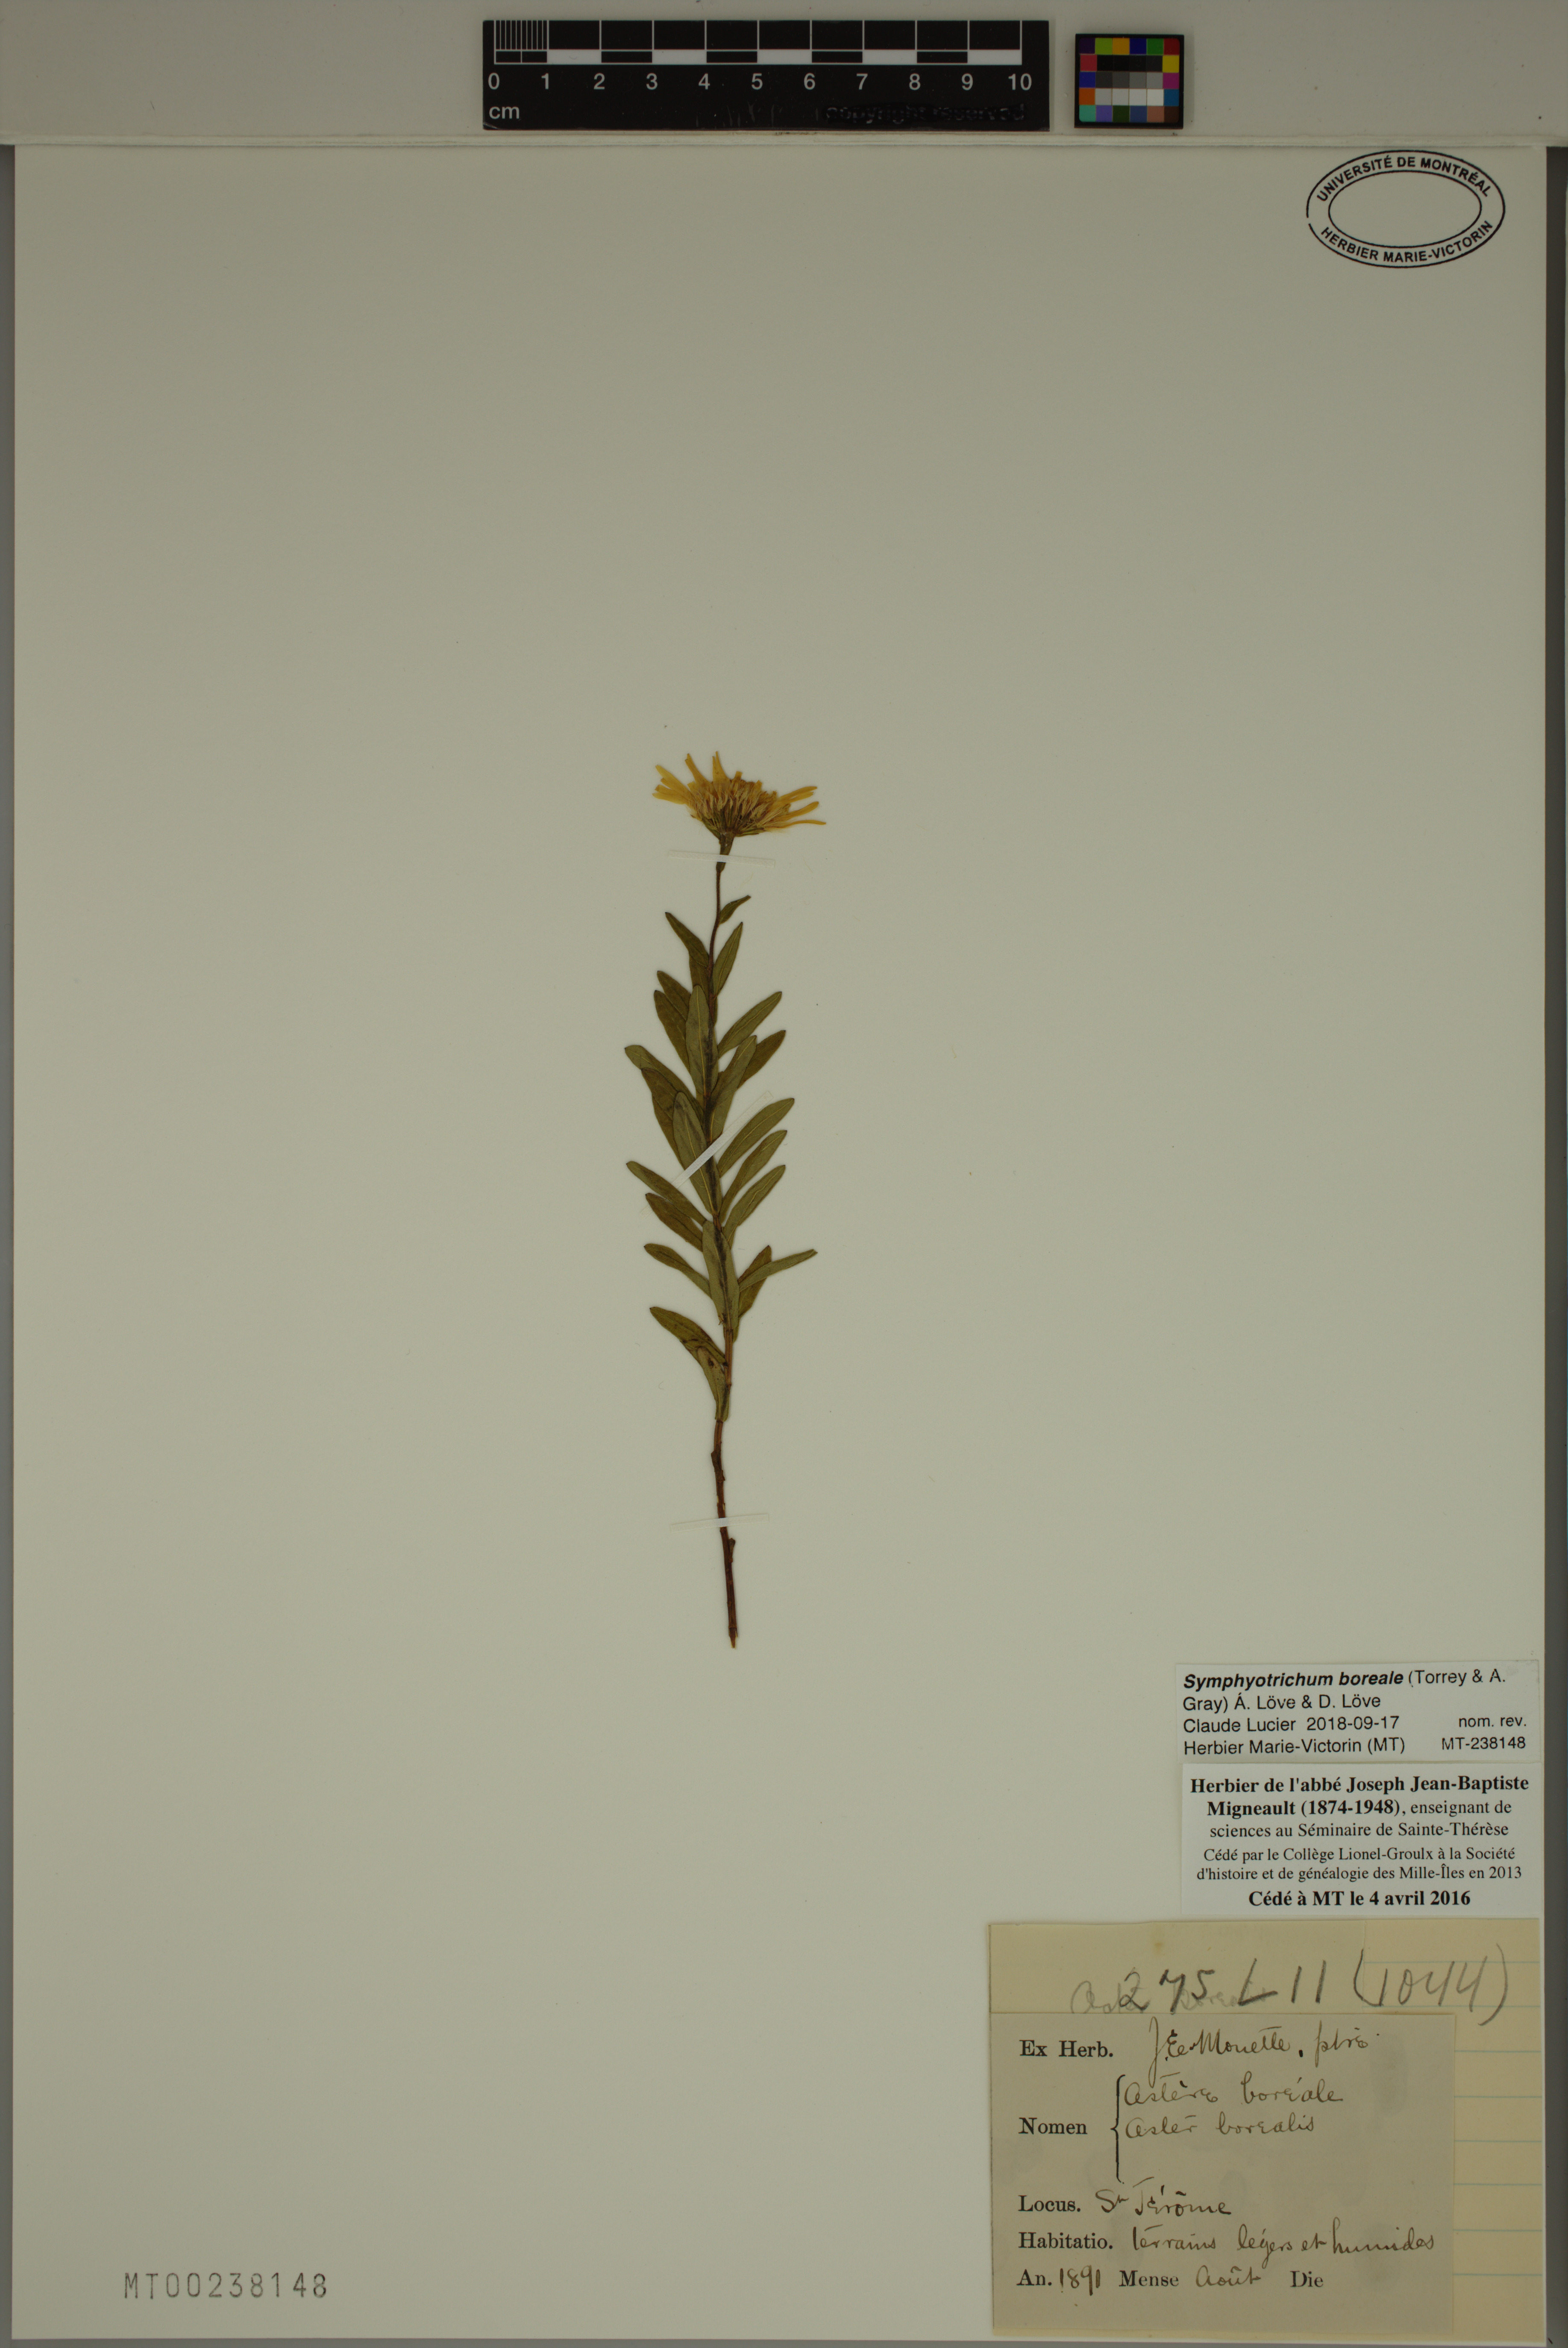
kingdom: Plantae
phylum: Tracheophyta
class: Magnoliopsida
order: Asterales
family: Asteraceae
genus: Symphyotrichum
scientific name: Symphyotrichum boreale
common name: Northern bog aster
